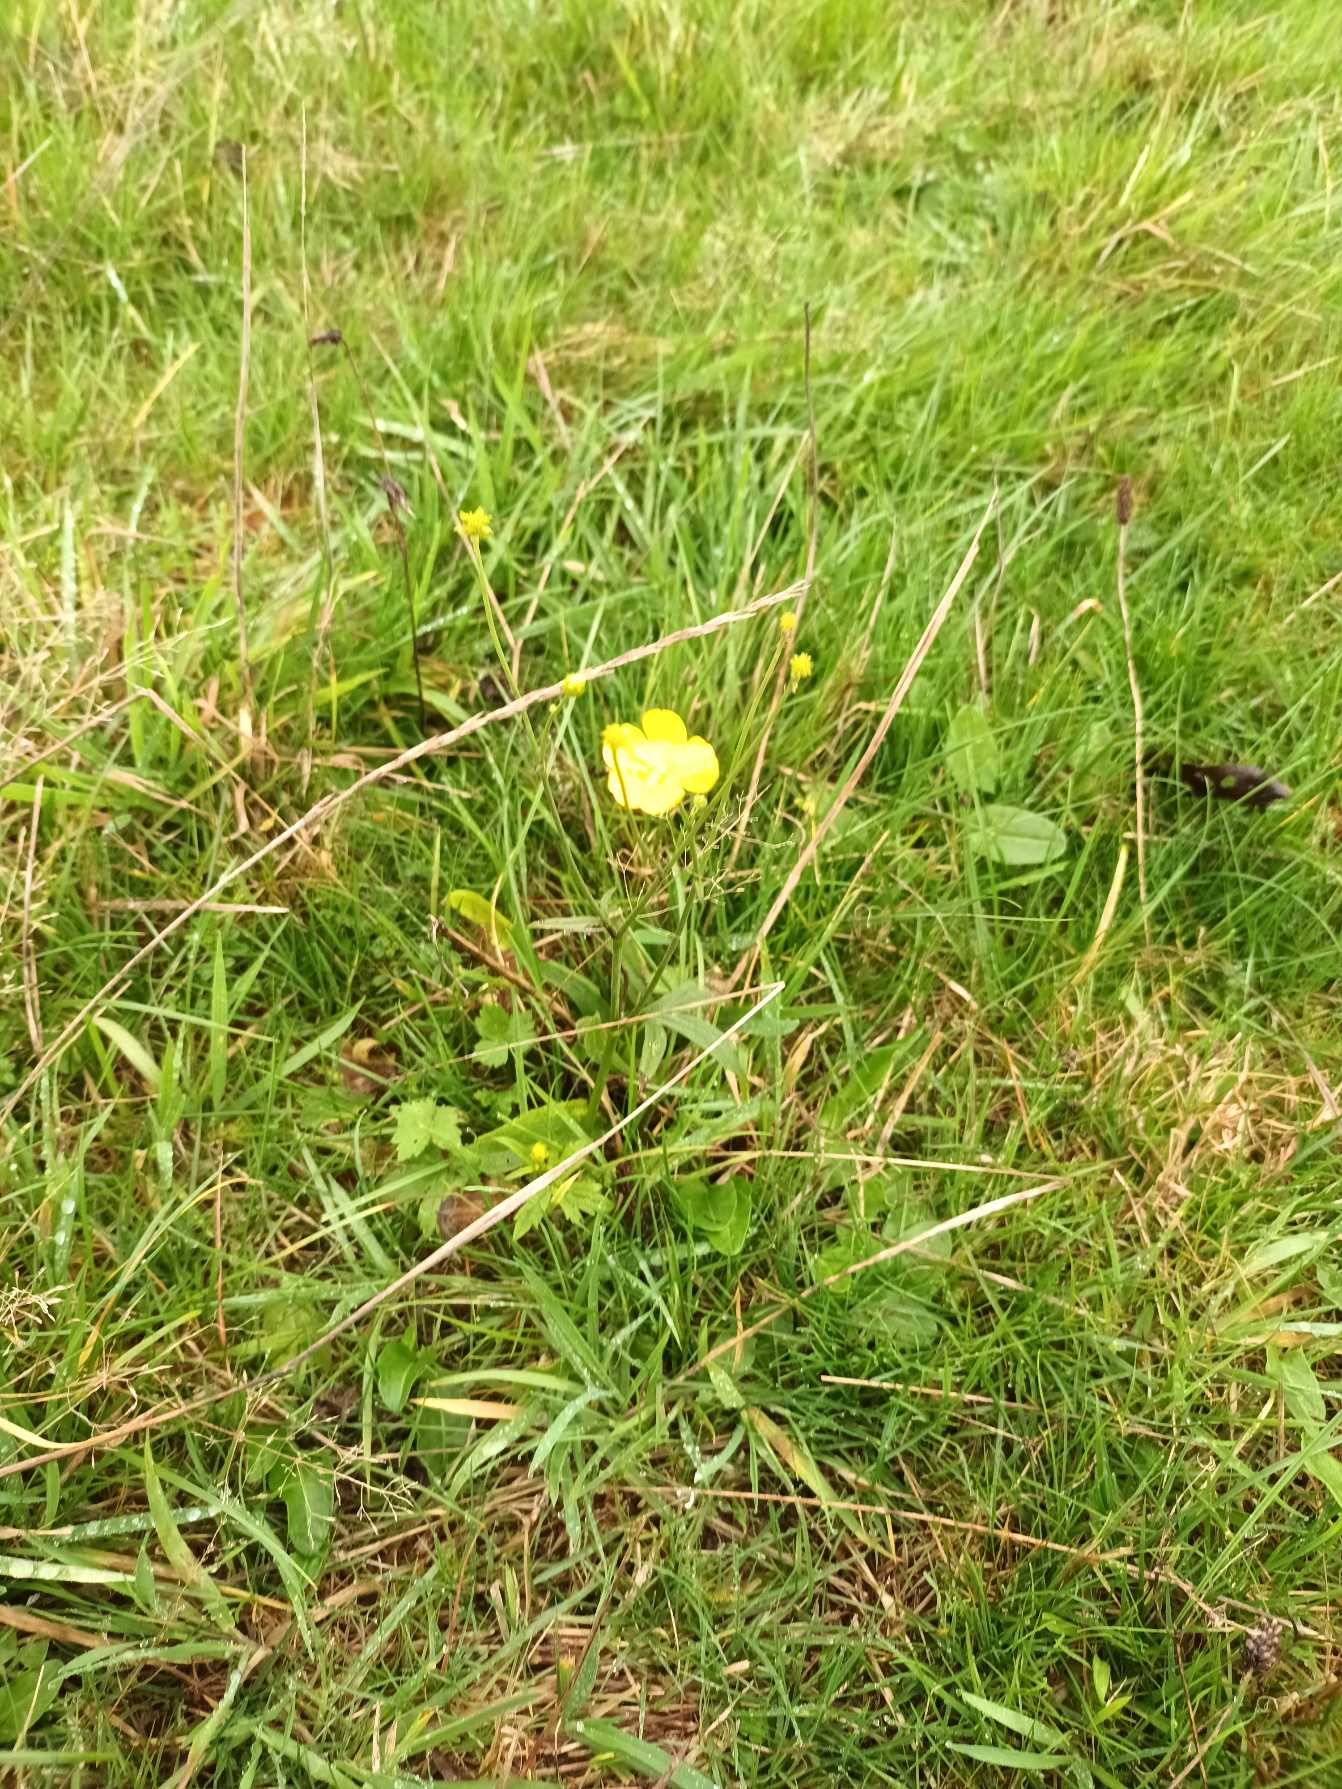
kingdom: Plantae
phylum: Tracheophyta
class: Magnoliopsida
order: Ranunculales
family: Ranunculaceae
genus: Ranunculus
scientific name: Ranunculus acris
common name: Bidende ranunkel
